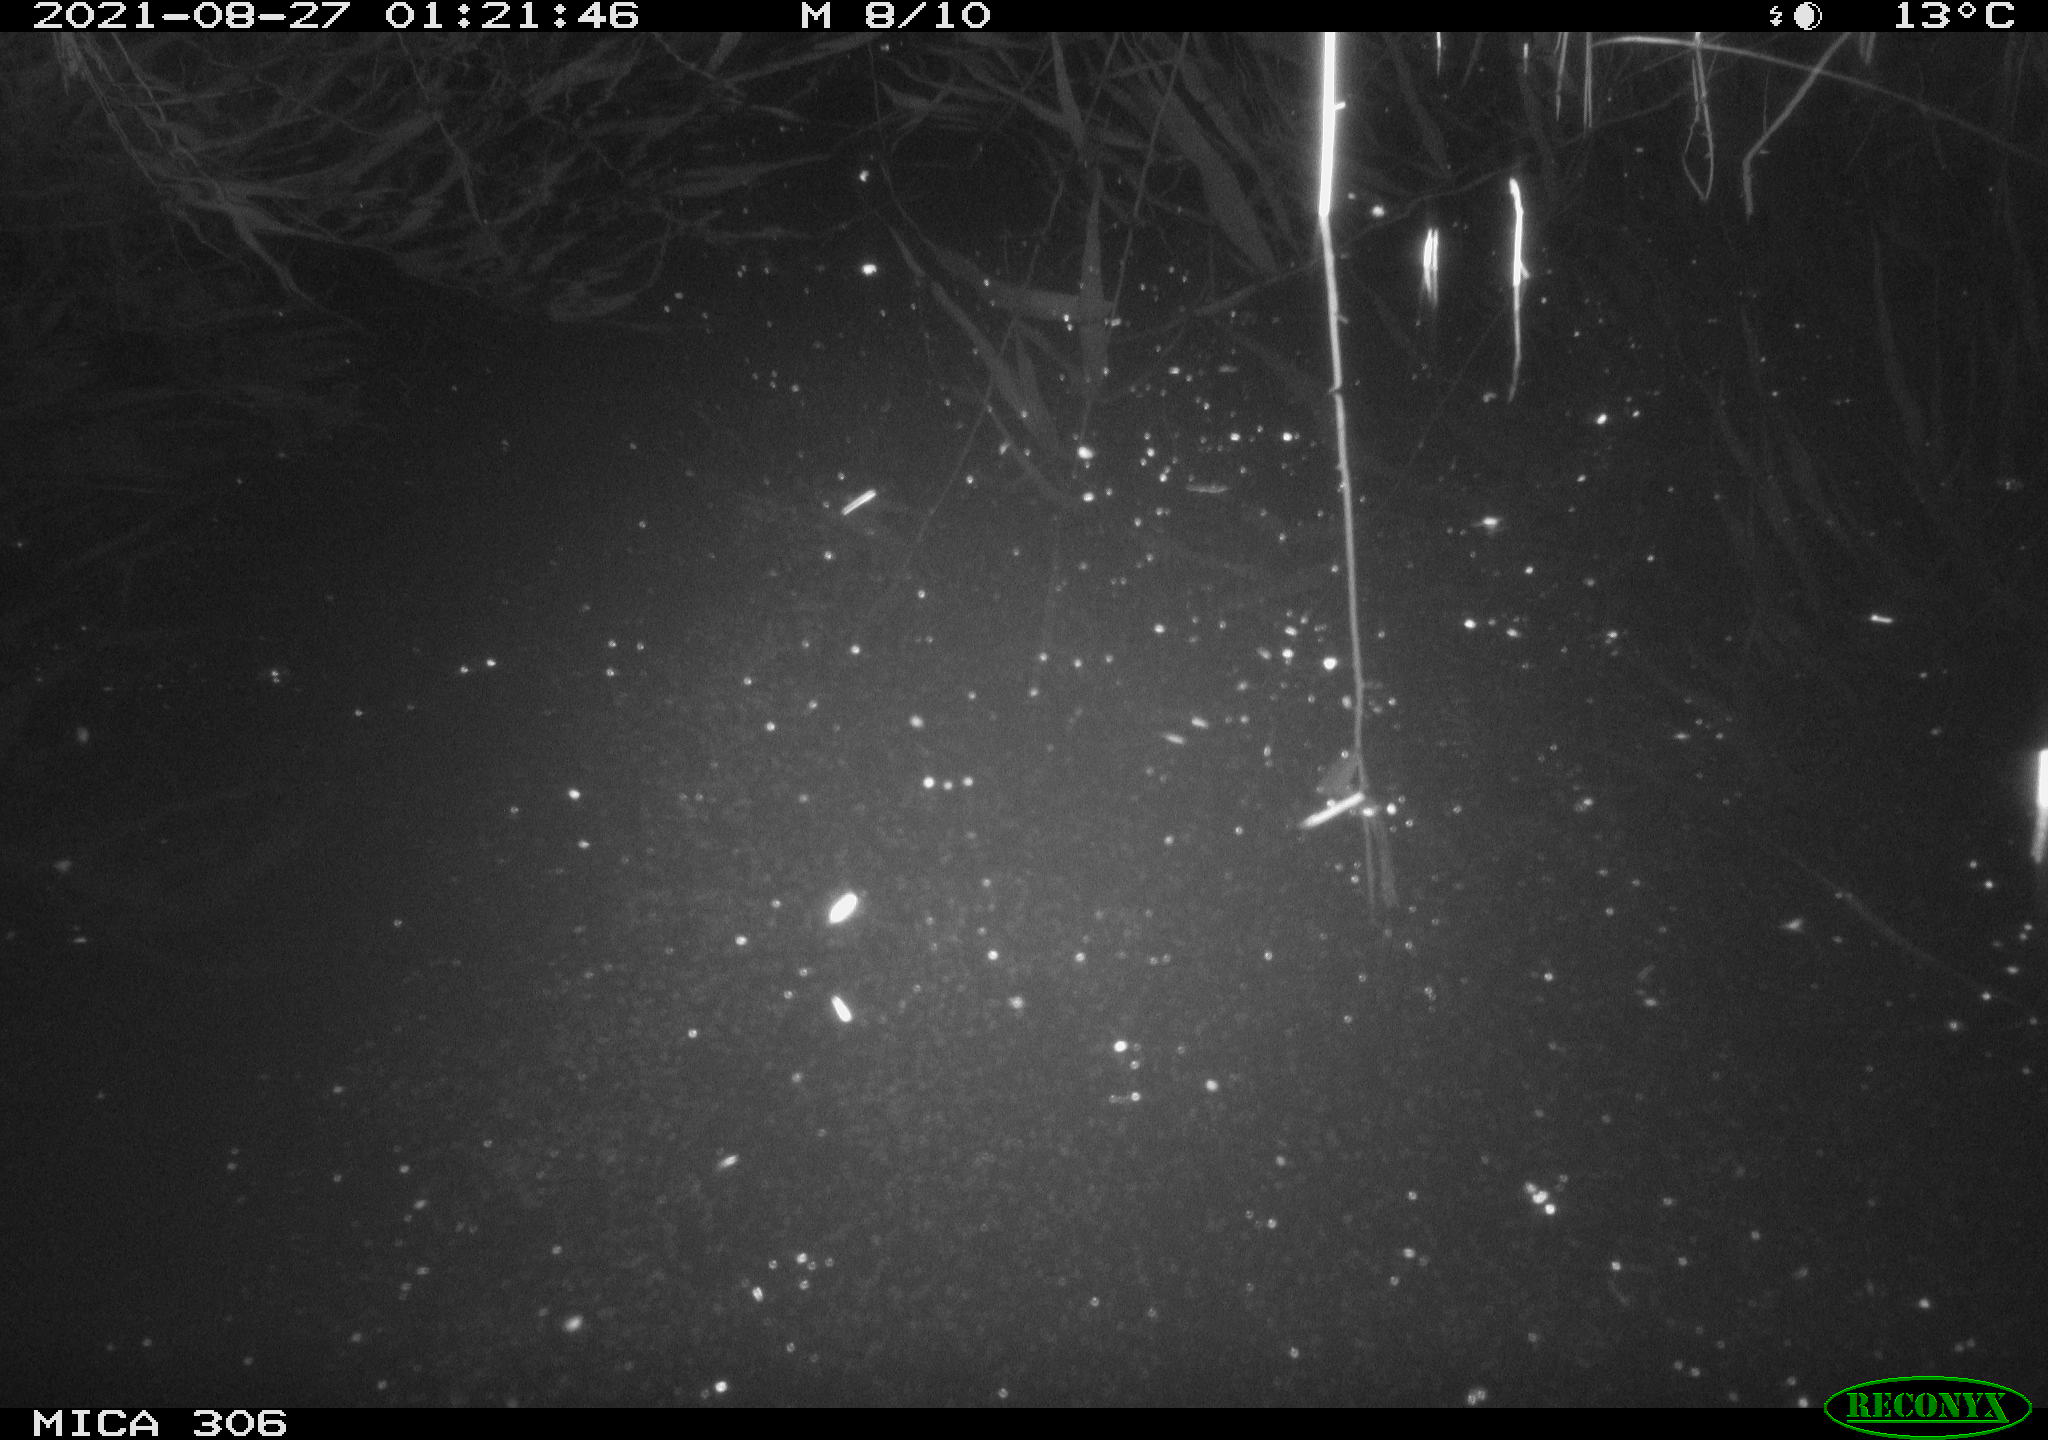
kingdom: Animalia
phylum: Chordata
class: Aves
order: Anseriformes
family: Anatidae
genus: Anas
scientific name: Anas platyrhynchos
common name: Mallard
